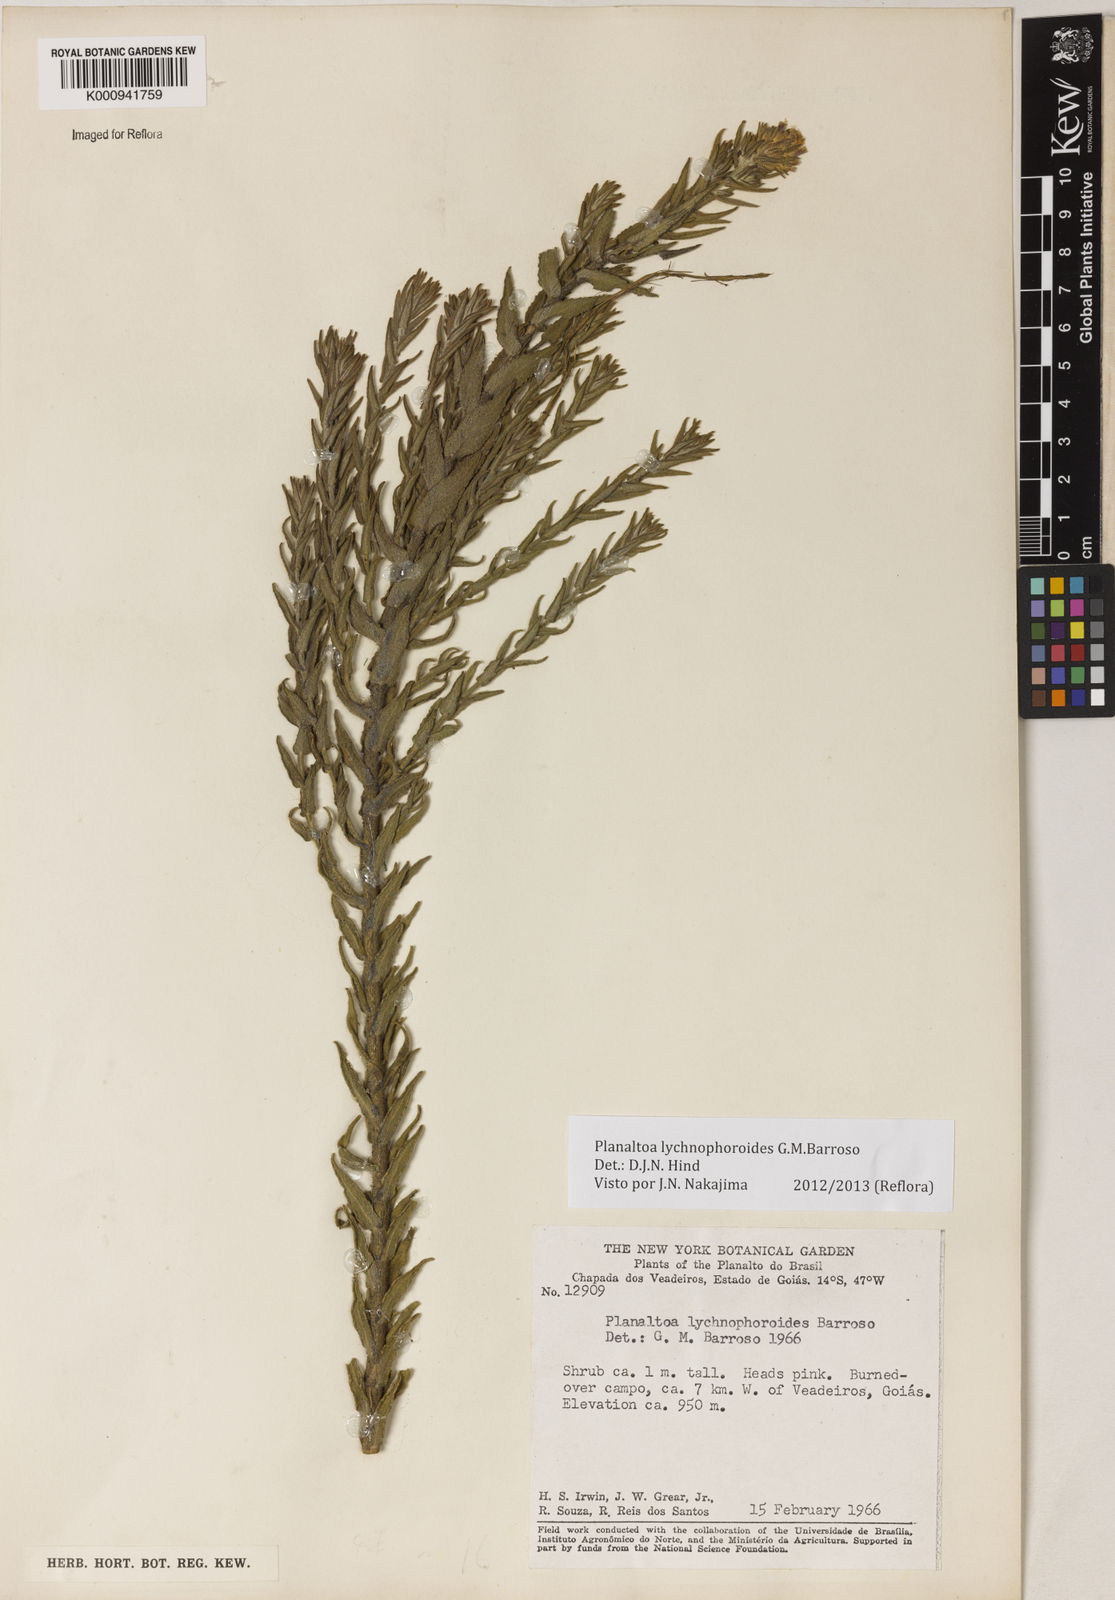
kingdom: Plantae
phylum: Tracheophyta
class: Magnoliopsida
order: Asterales
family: Asteraceae
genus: Planaltoa
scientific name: Planaltoa lychnophoroides
